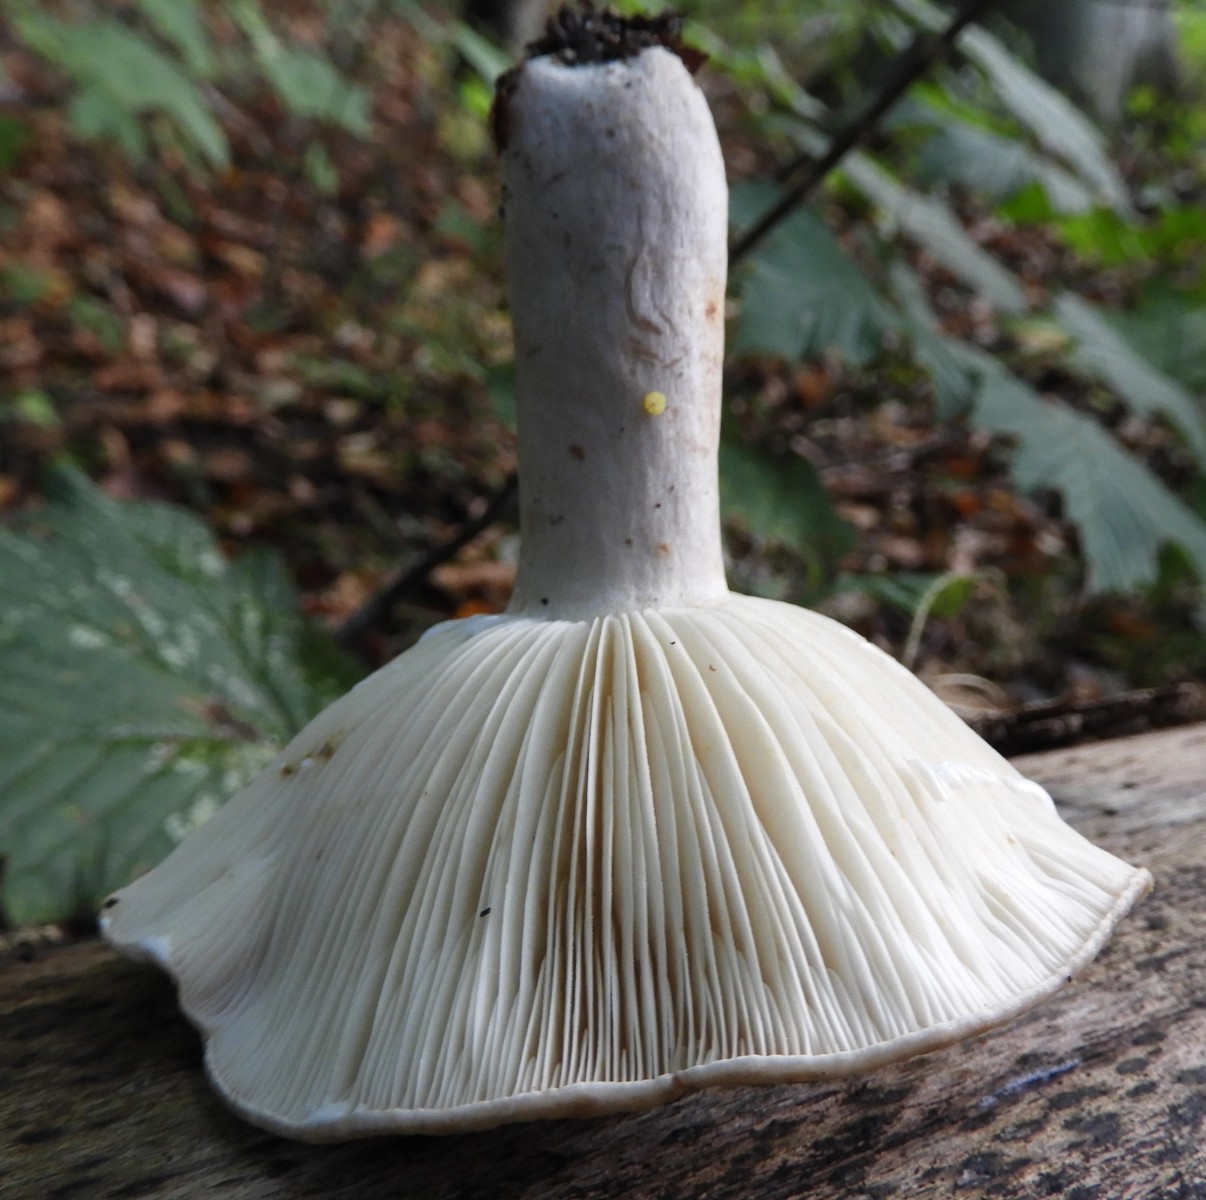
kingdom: Fungi
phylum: Basidiomycota
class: Agaricomycetes
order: Russulales
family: Russulaceae
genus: Lactarius
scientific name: Lactarius circellatus
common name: avnbøg-mælkehat
